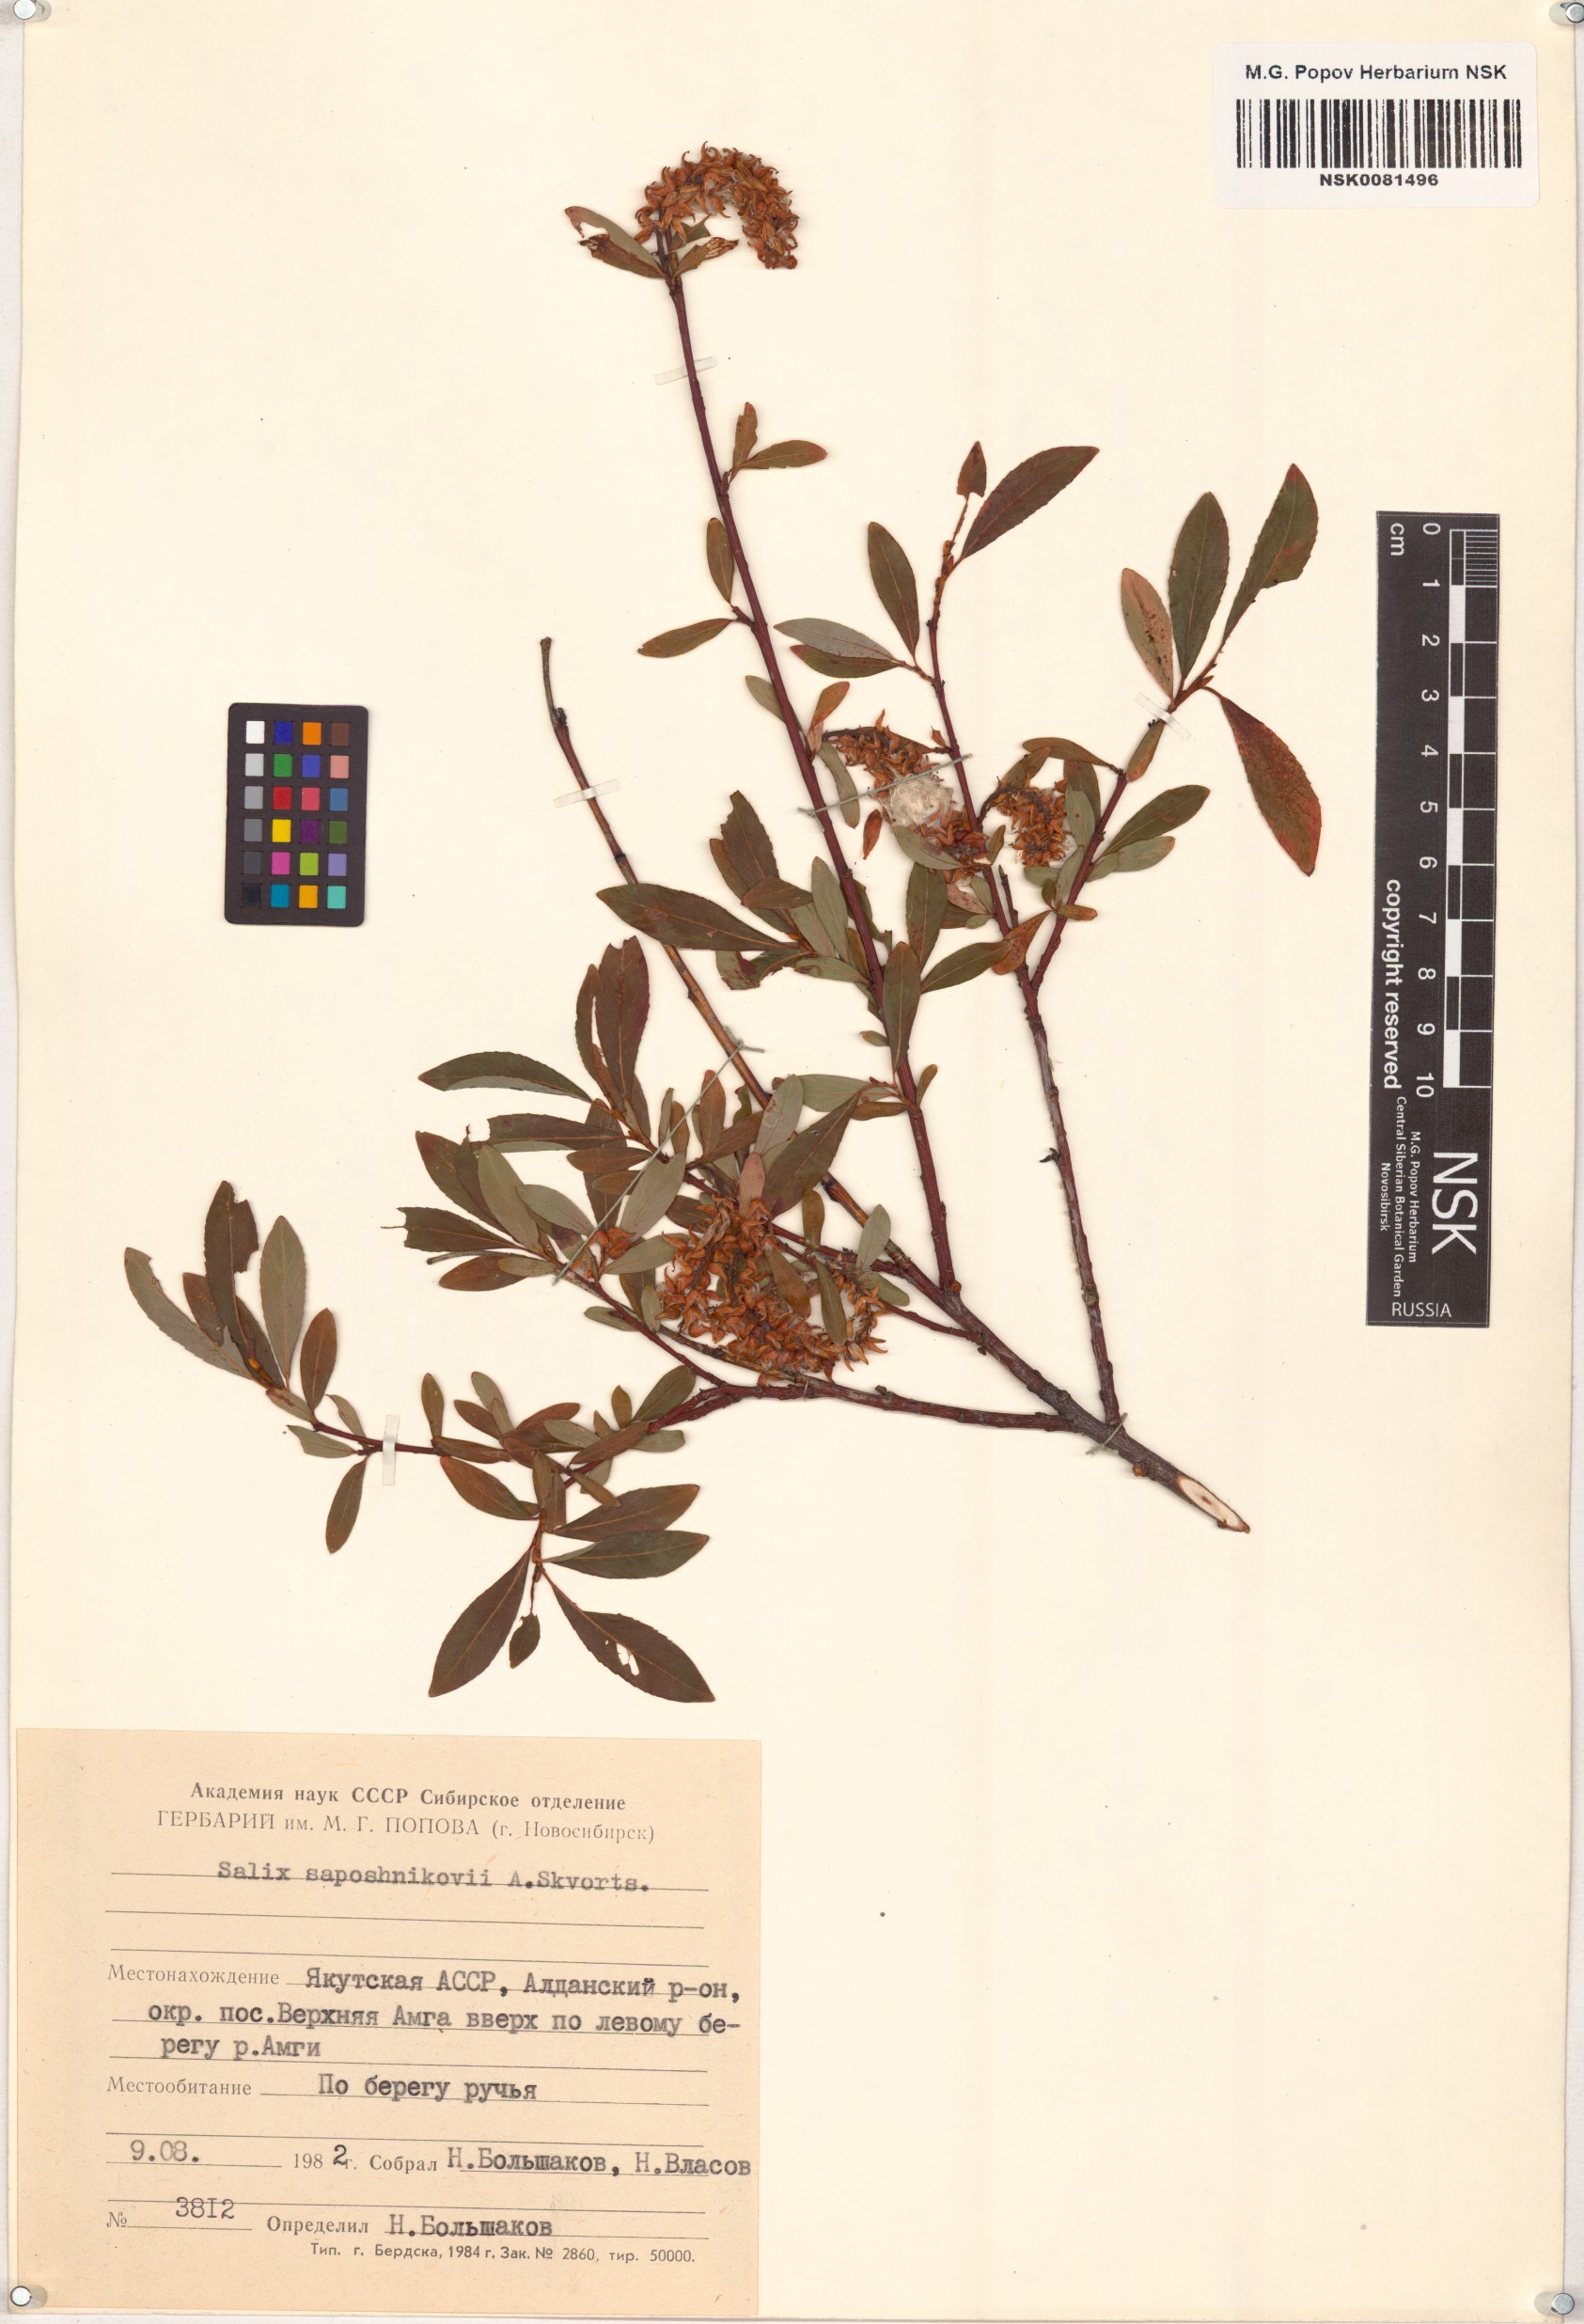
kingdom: Plantae
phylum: Tracheophyta
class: Magnoliopsida
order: Malpighiales
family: Salicaceae
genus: Salix
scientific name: Salix saposhnikovii
